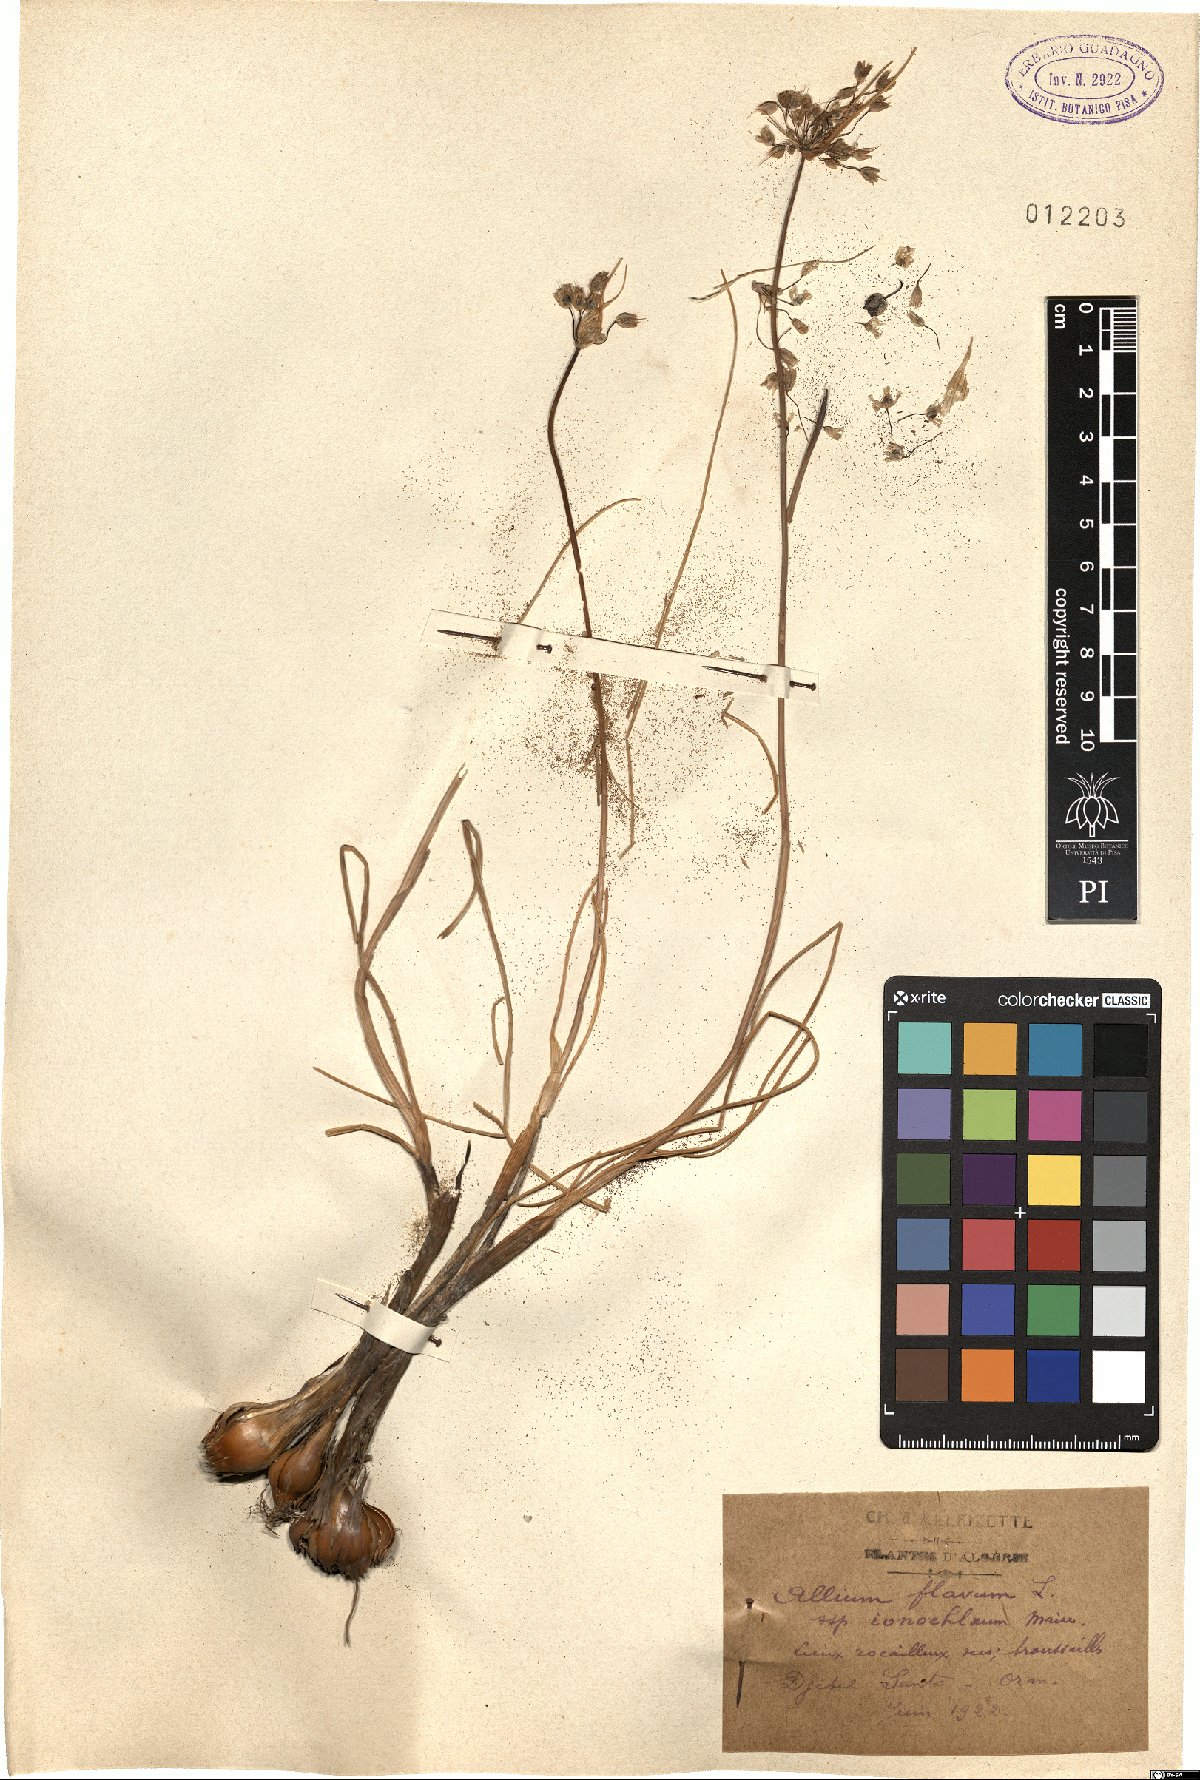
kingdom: Plantae
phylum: Tracheophyta
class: Liliopsida
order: Asparagales
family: Amaryllidaceae
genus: Allium
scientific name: Allium flavum
